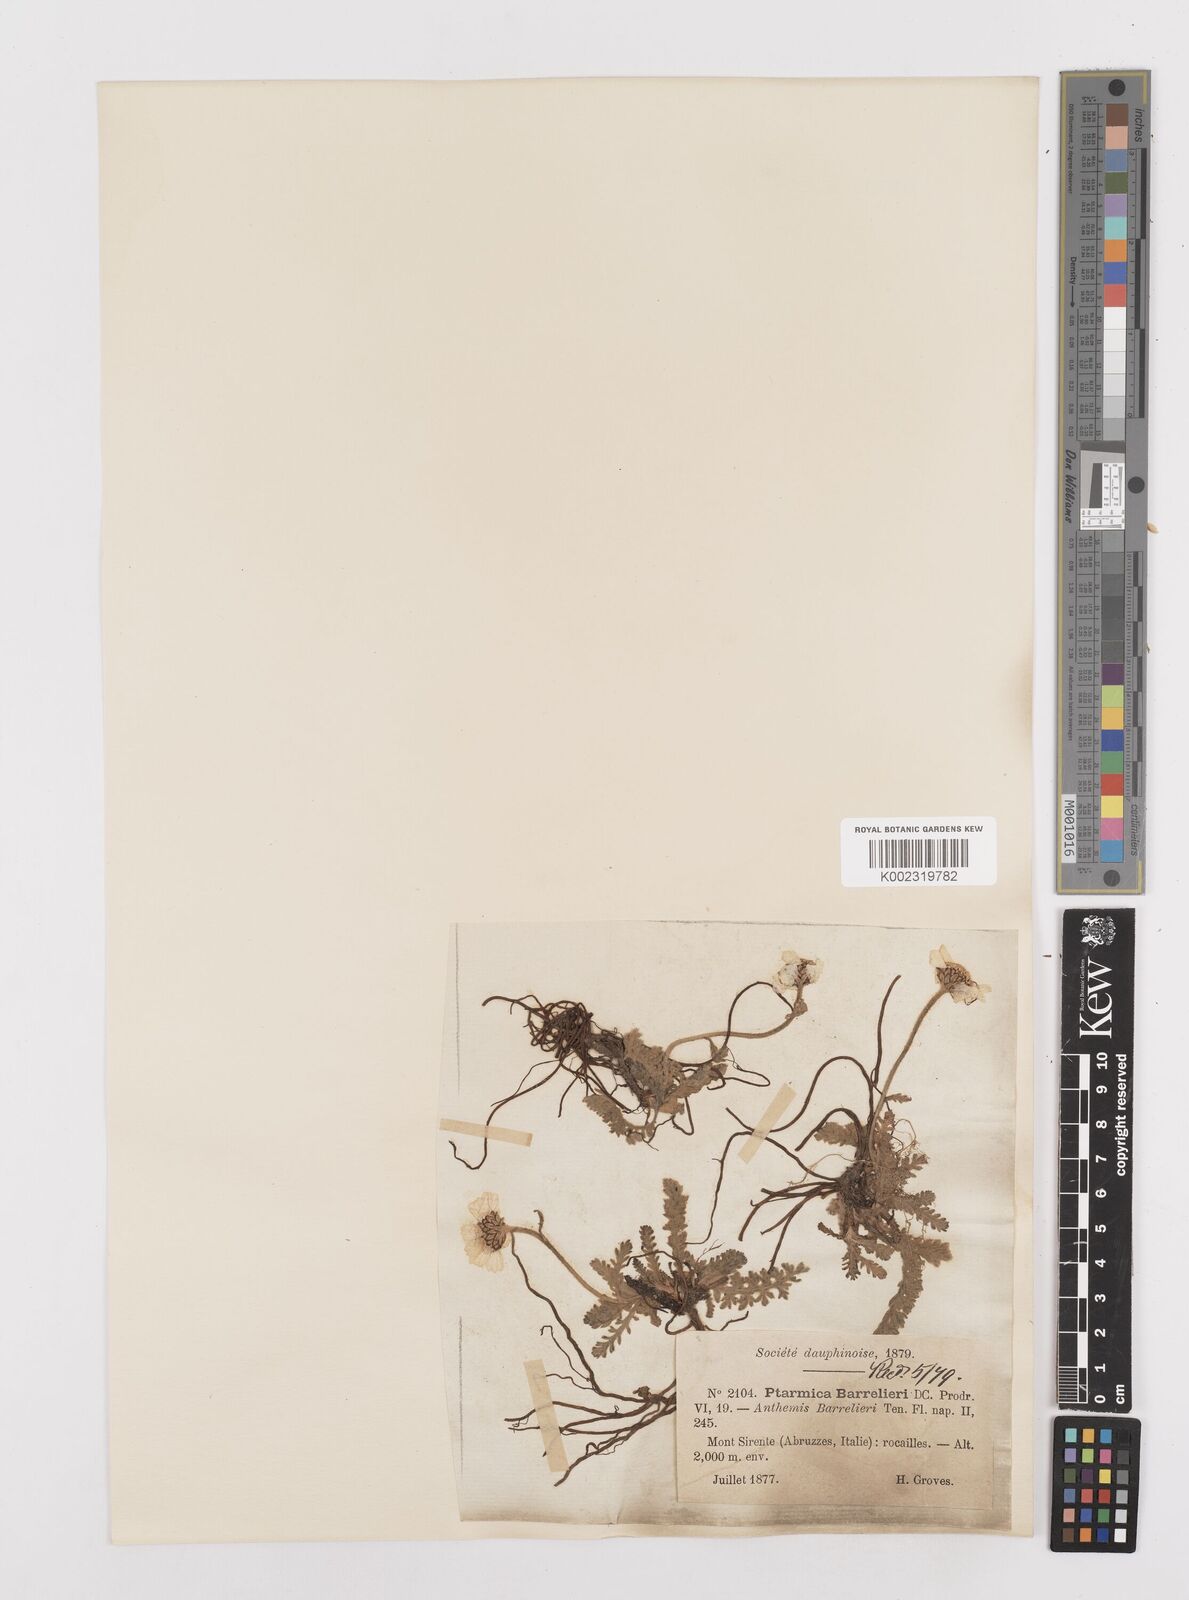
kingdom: Plantae
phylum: Tracheophyta
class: Magnoliopsida
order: Asterales
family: Asteraceae
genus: Achillea
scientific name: Achillea barrelieri
